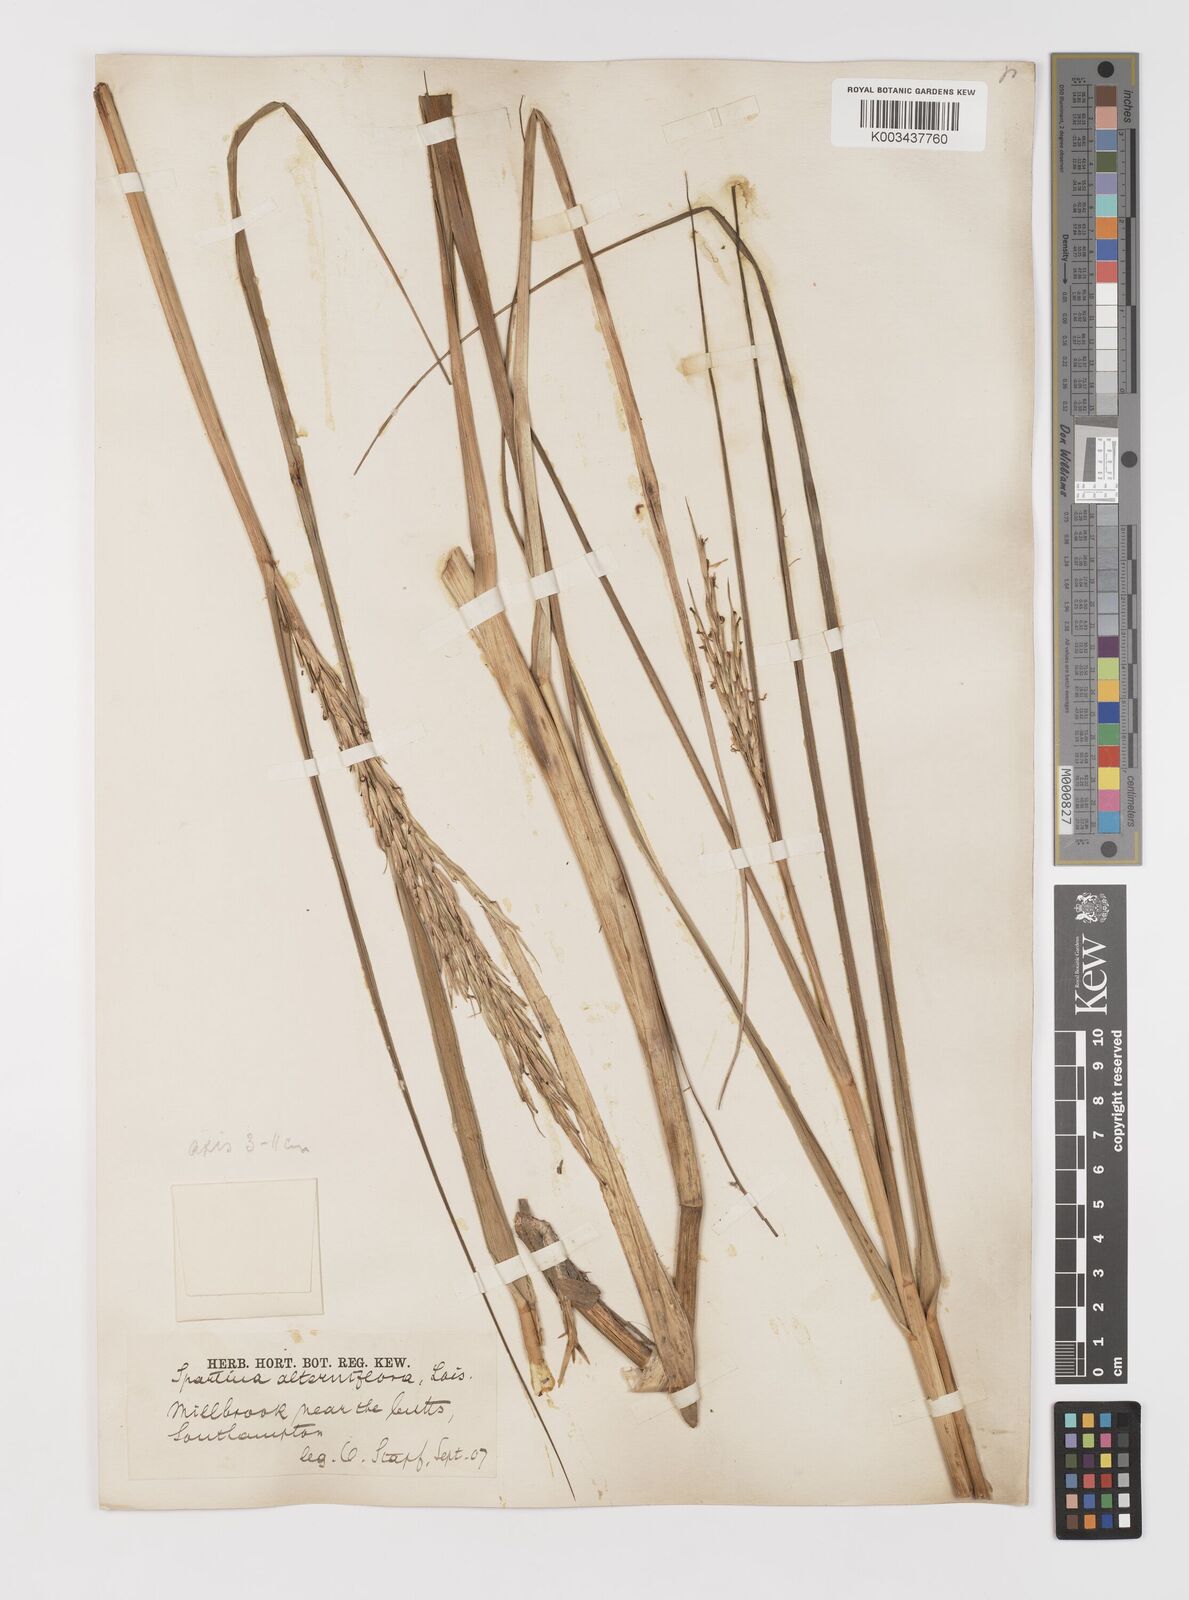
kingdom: Plantae
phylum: Tracheophyta
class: Liliopsida
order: Poales
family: Poaceae
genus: Sporobolus
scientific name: Sporobolus alterniflorus
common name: Atlantic cordgrass
